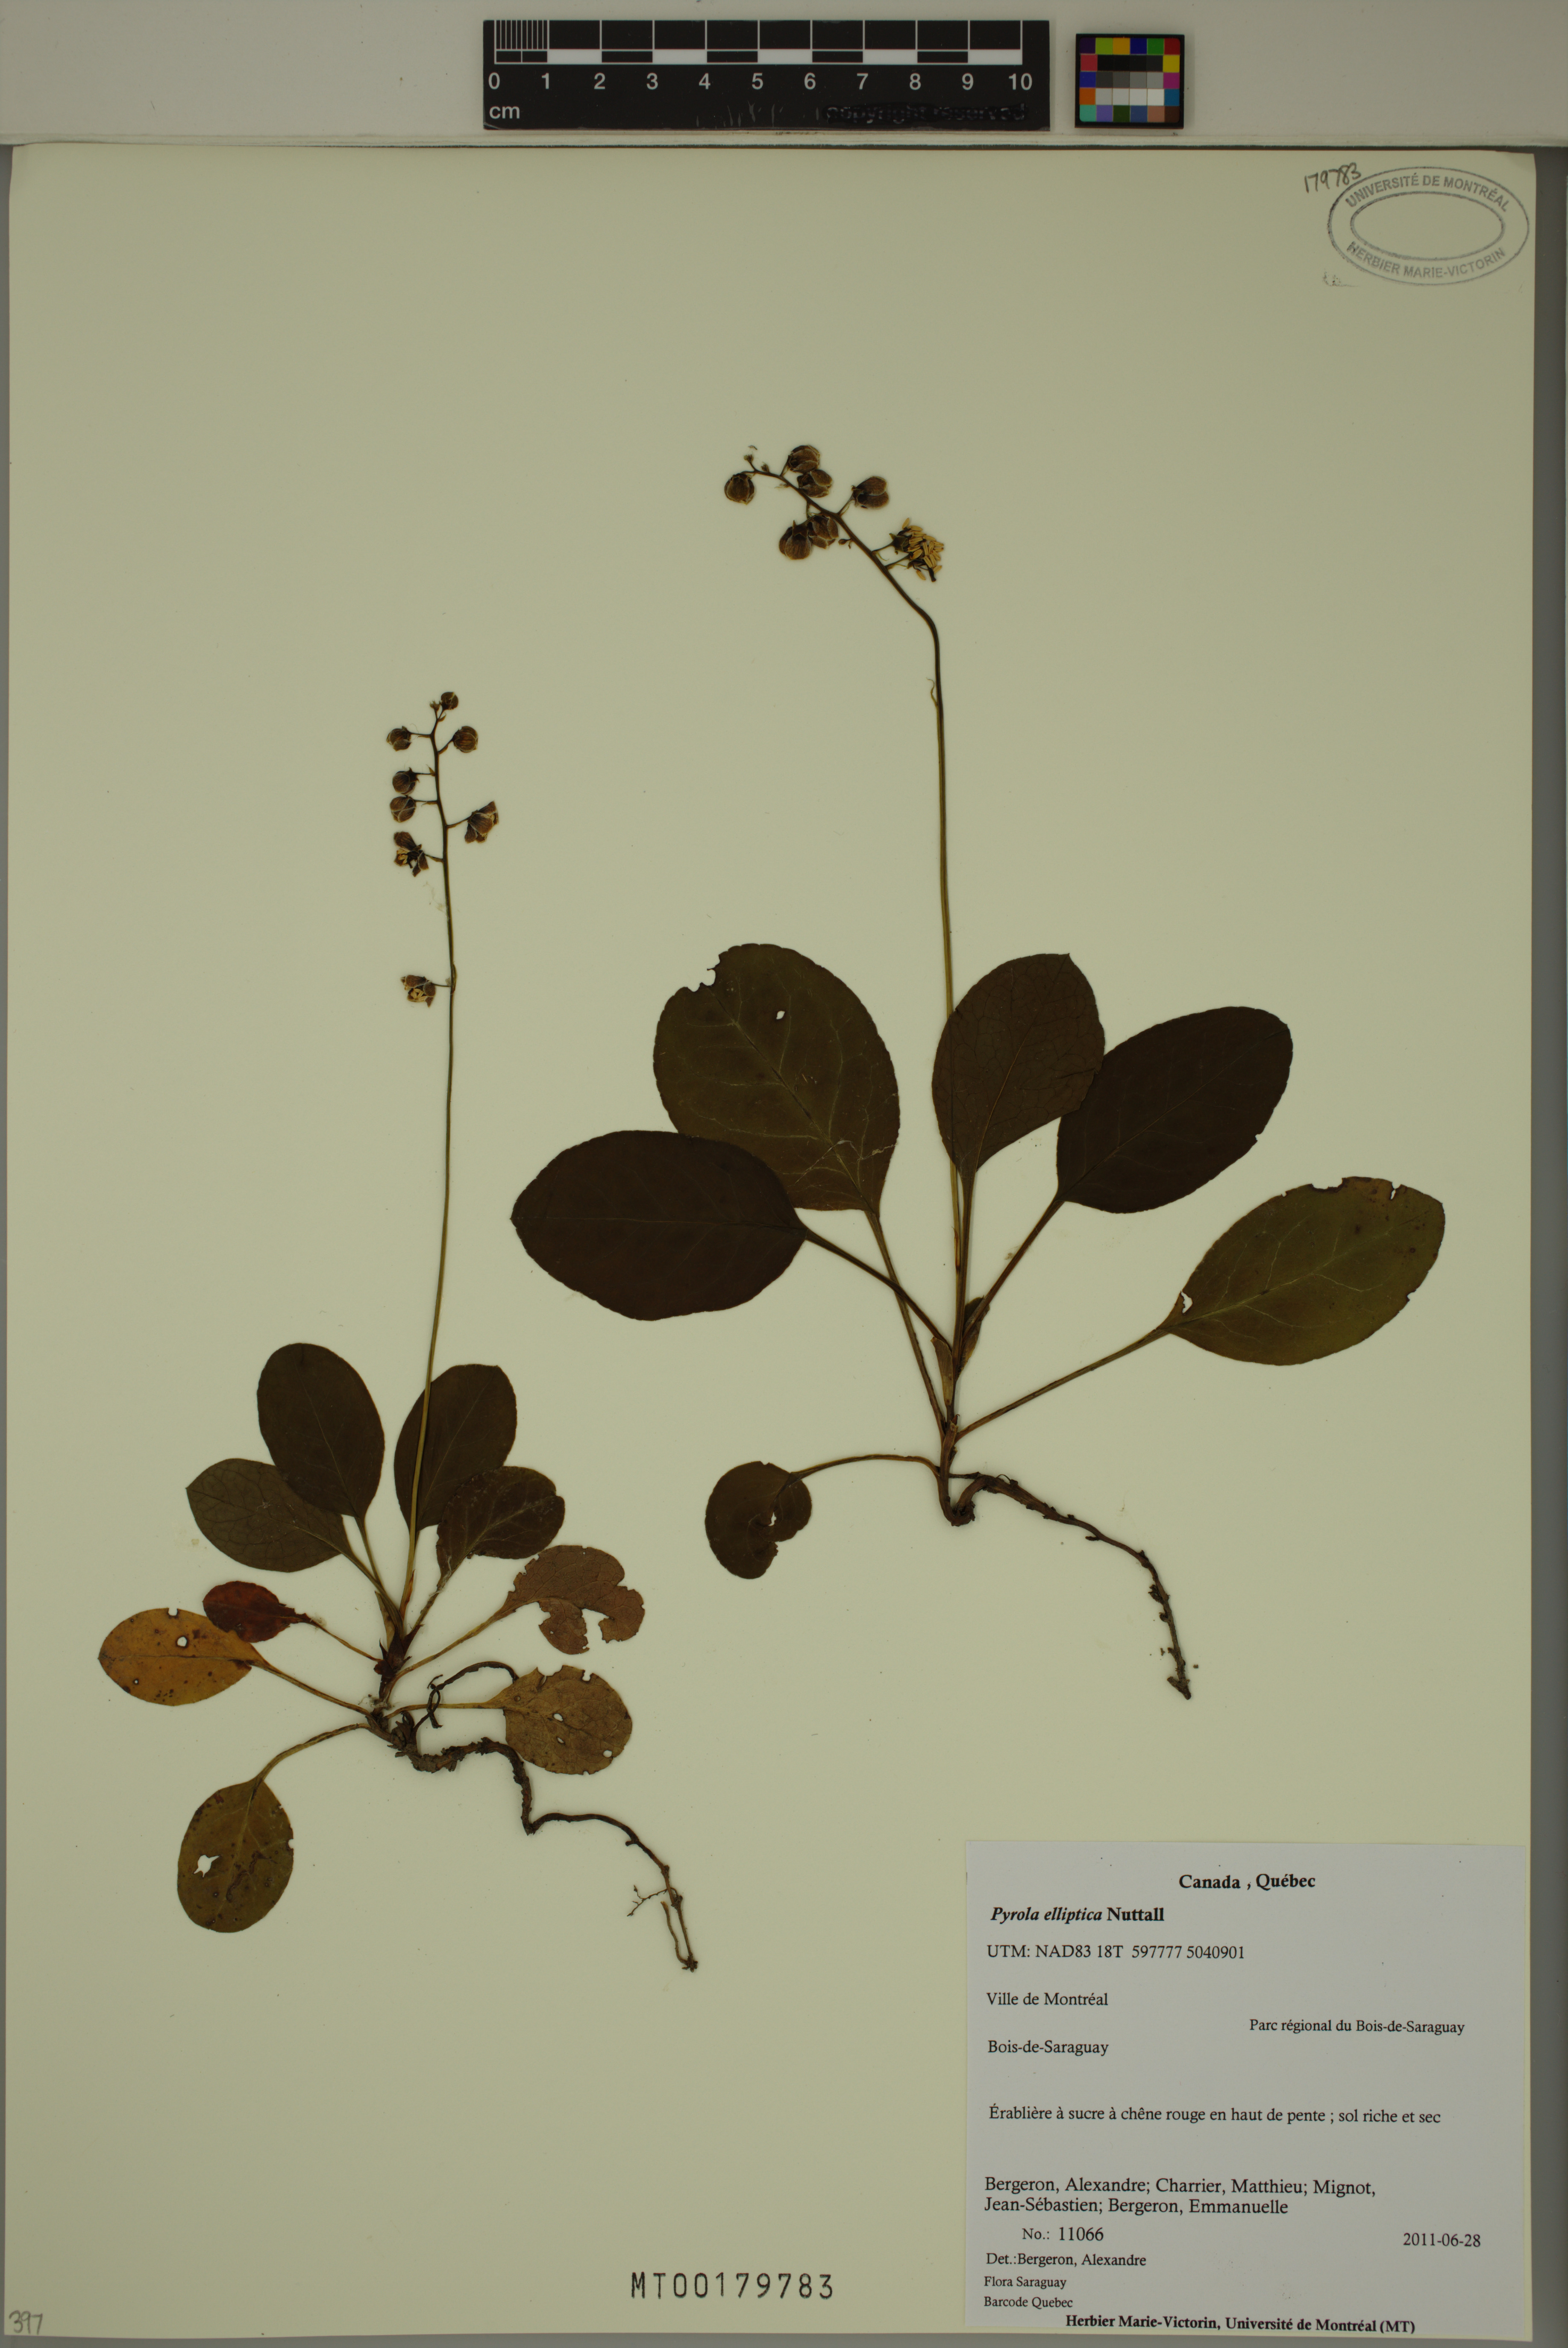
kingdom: Plantae
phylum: Tracheophyta
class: Magnoliopsida
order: Ericales
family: Ericaceae
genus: Pyrola
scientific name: Pyrola elliptica
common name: Shinleaf
